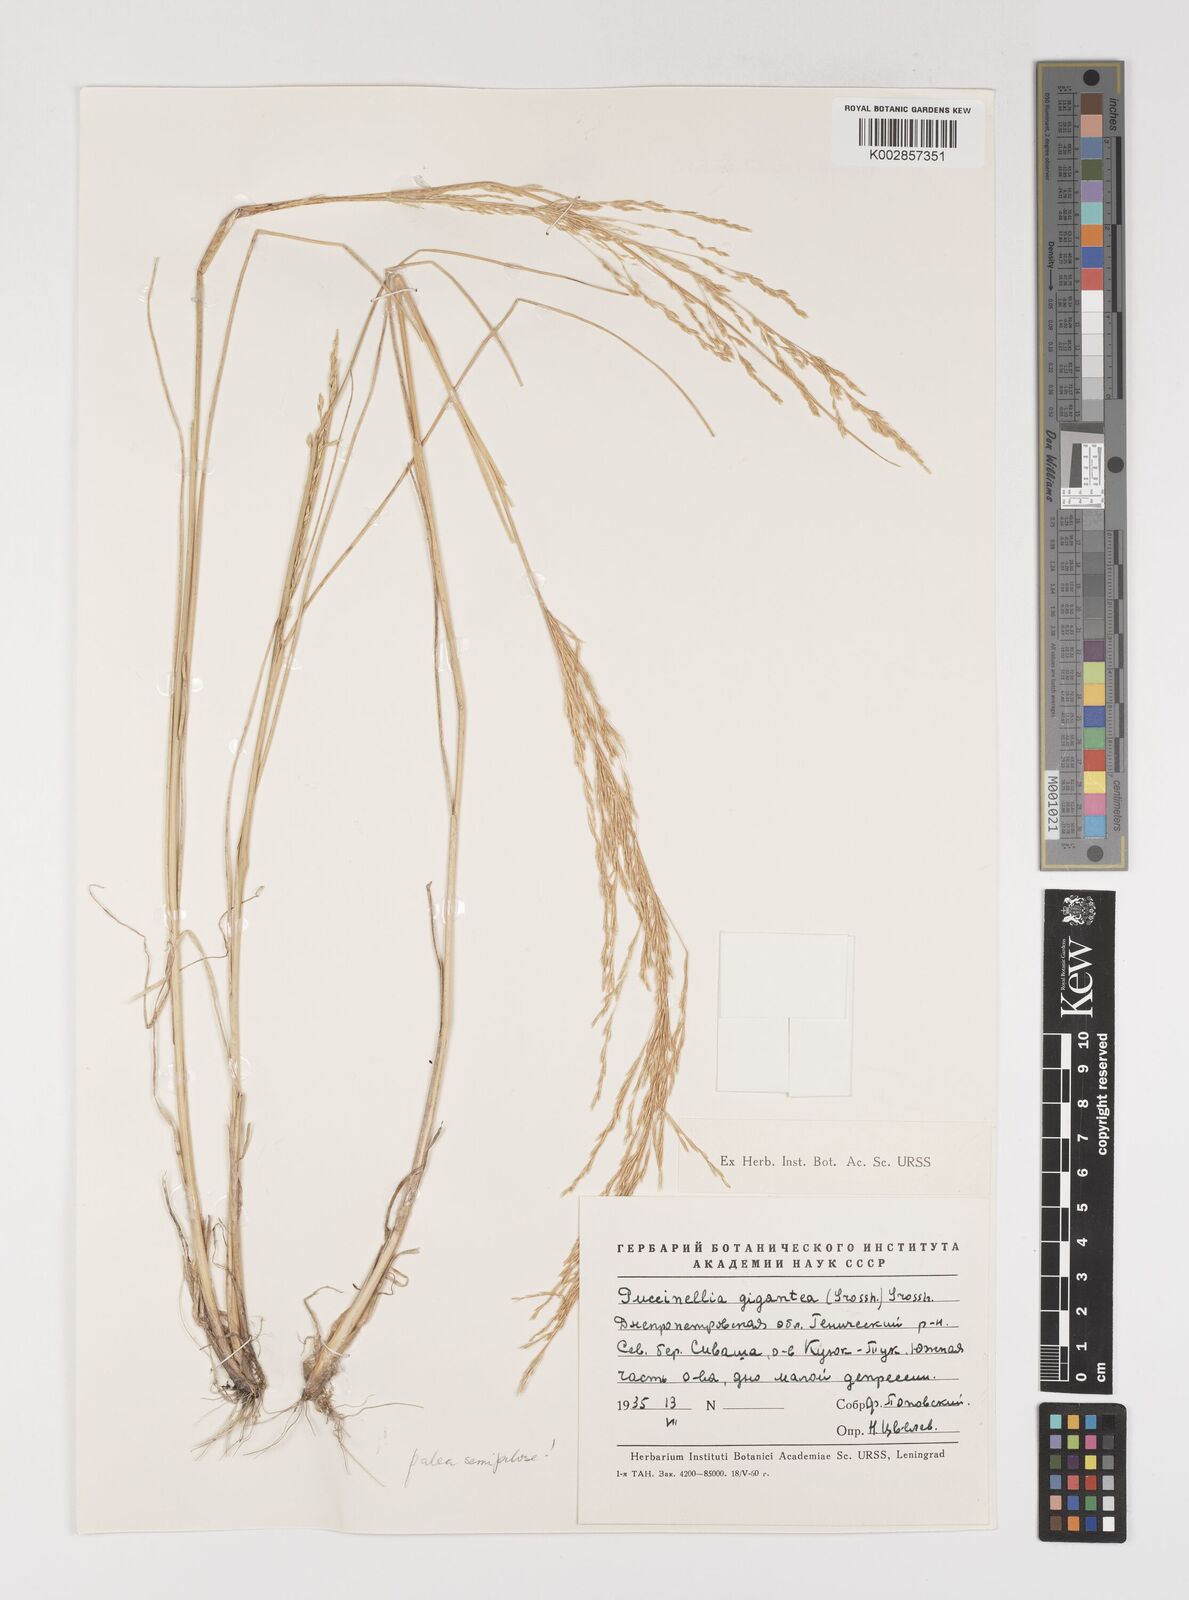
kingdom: Plantae
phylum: Tracheophyta
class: Liliopsida
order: Poales
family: Poaceae
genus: Puccinellia
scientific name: Puccinellia gigantea
